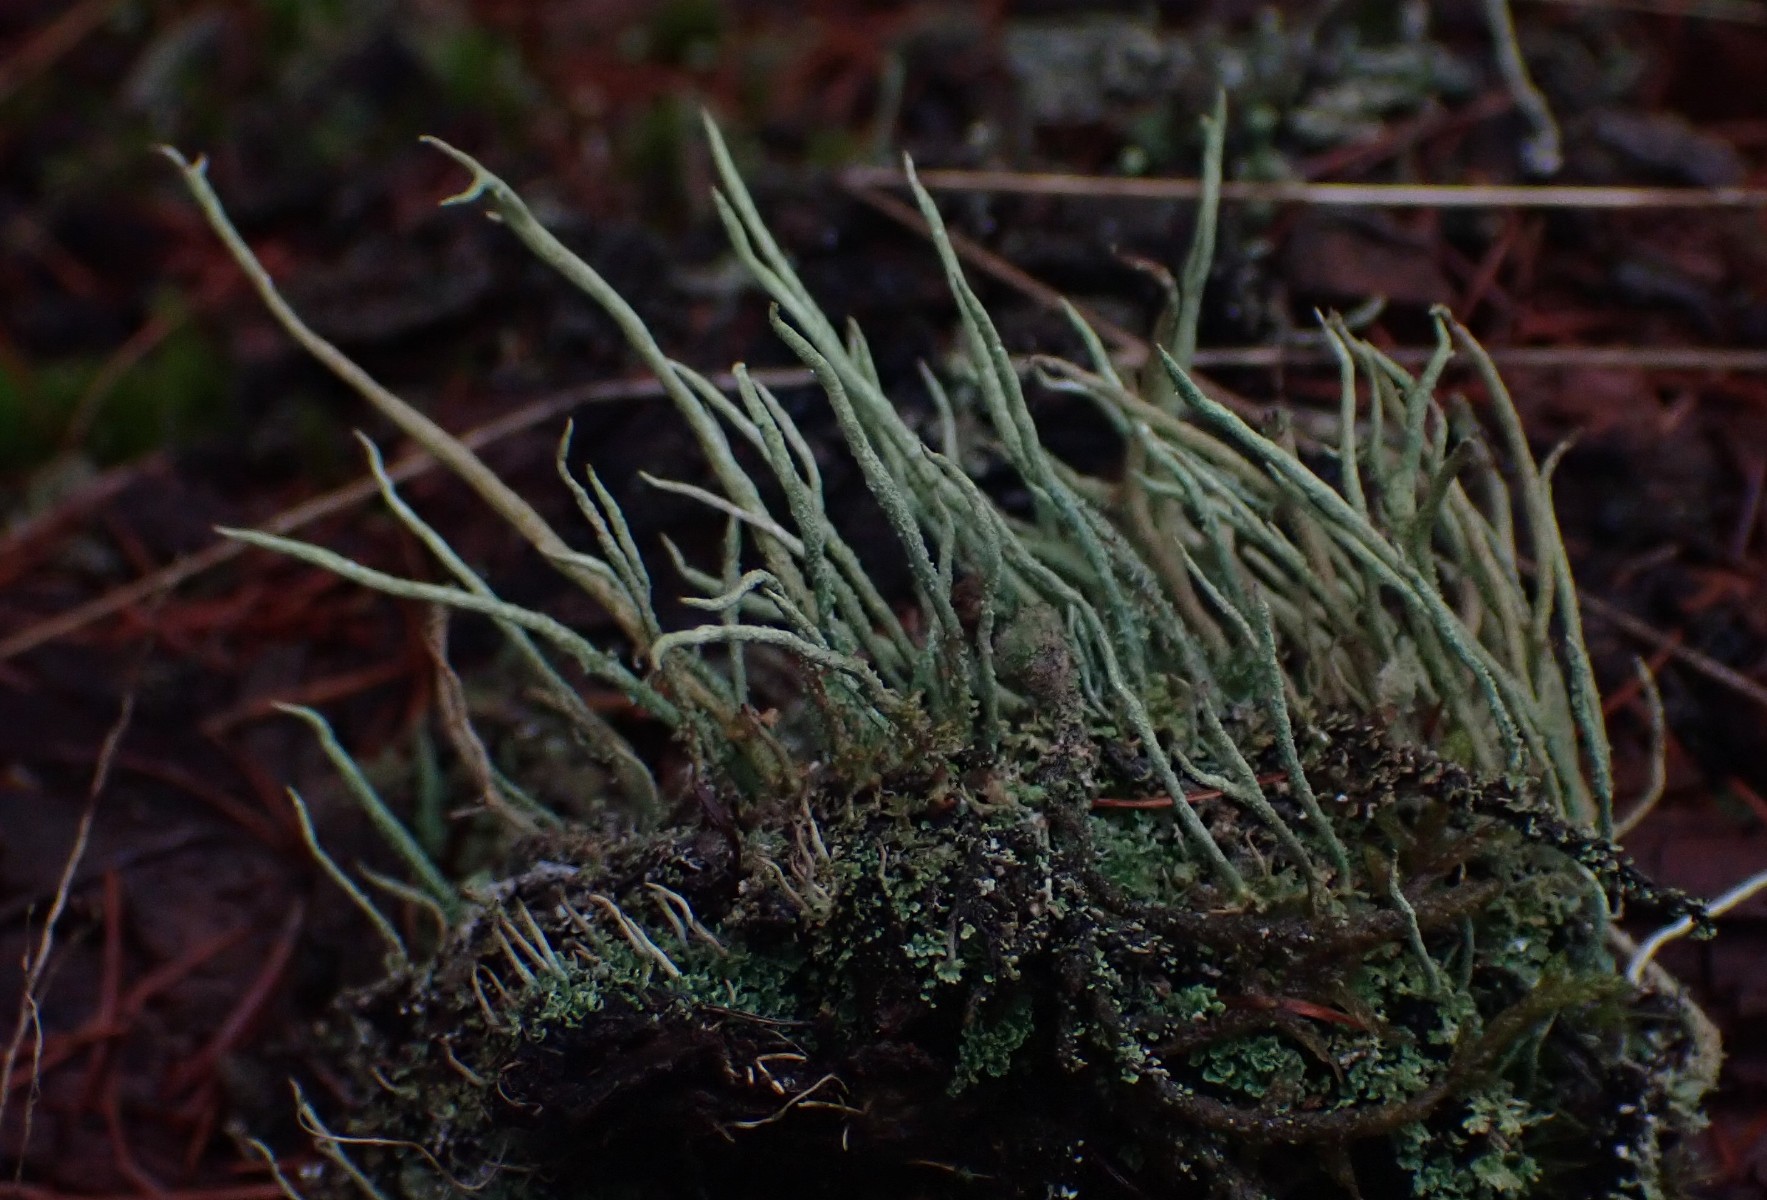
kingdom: Fungi
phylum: Ascomycota
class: Lecanoromycetes
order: Lecanorales
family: Cladoniaceae
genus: Cladonia
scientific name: Cladonia glauca
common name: grågrøn bægerlav
